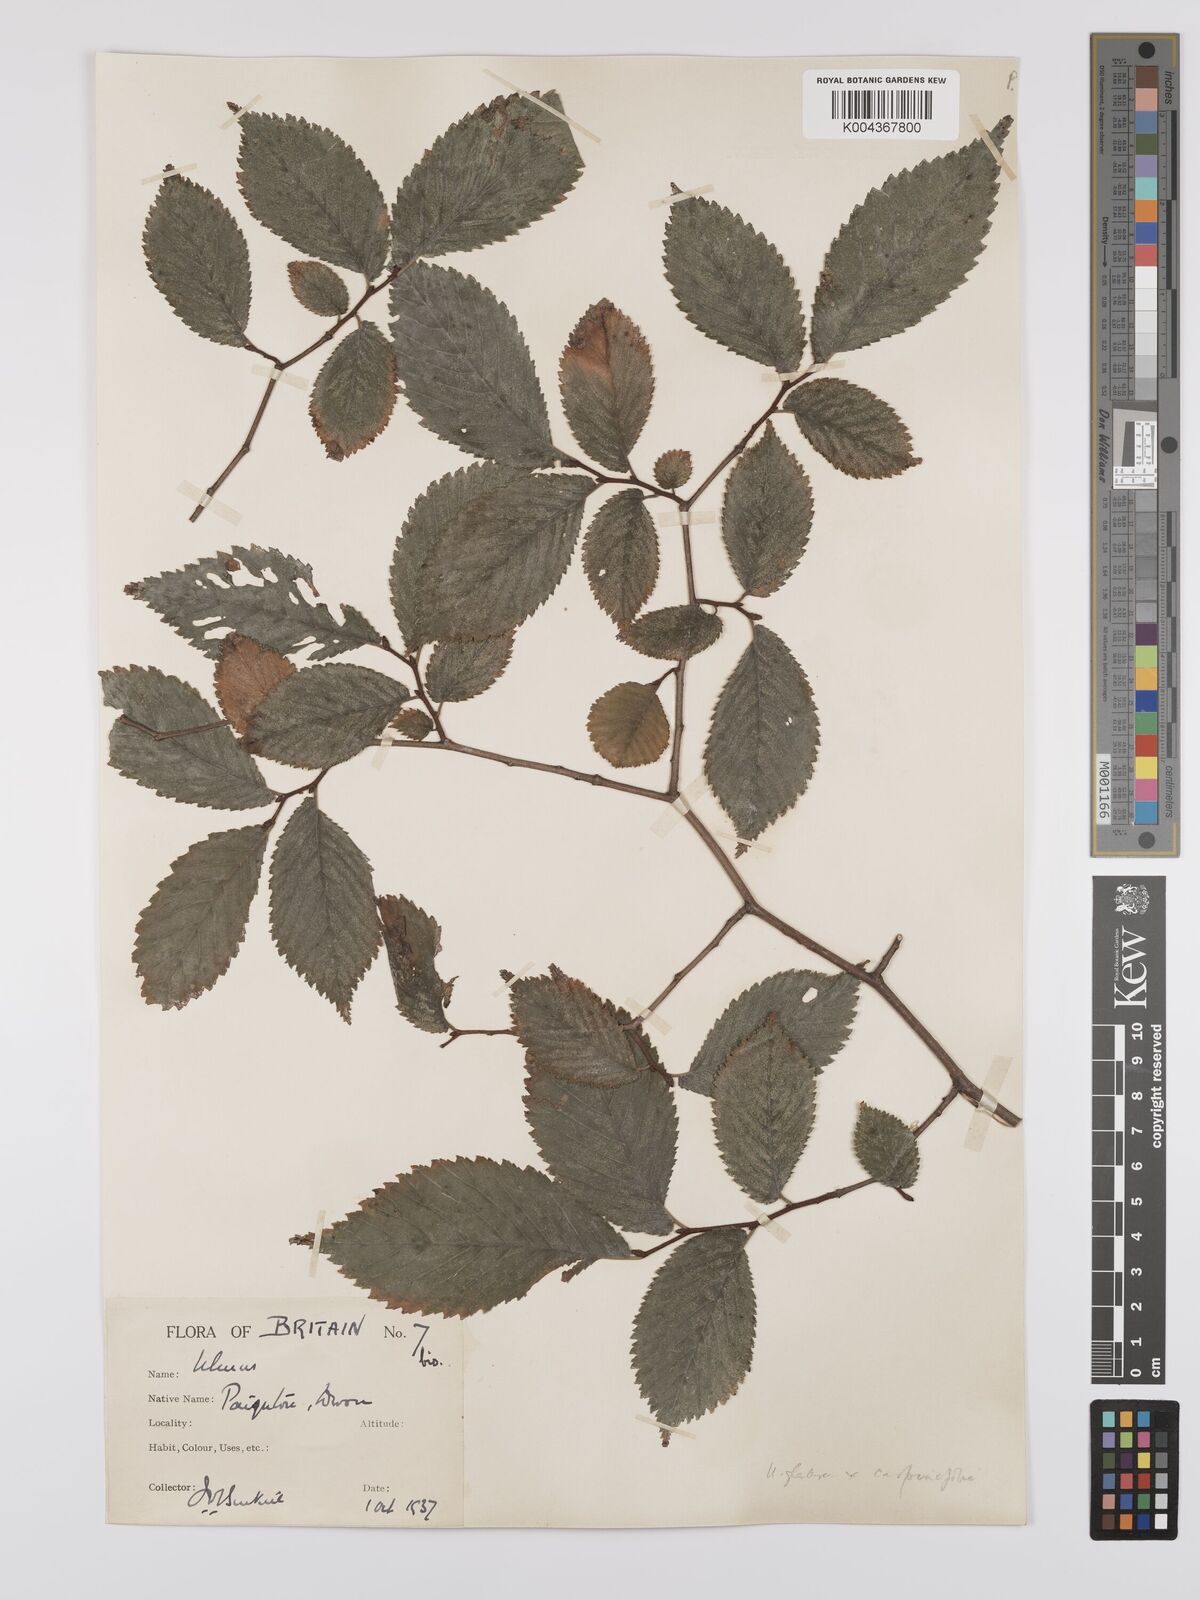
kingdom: Plantae
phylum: Tracheophyta
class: Magnoliopsida
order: Rosales
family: Ulmaceae
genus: Ulmus
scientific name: Ulmus
